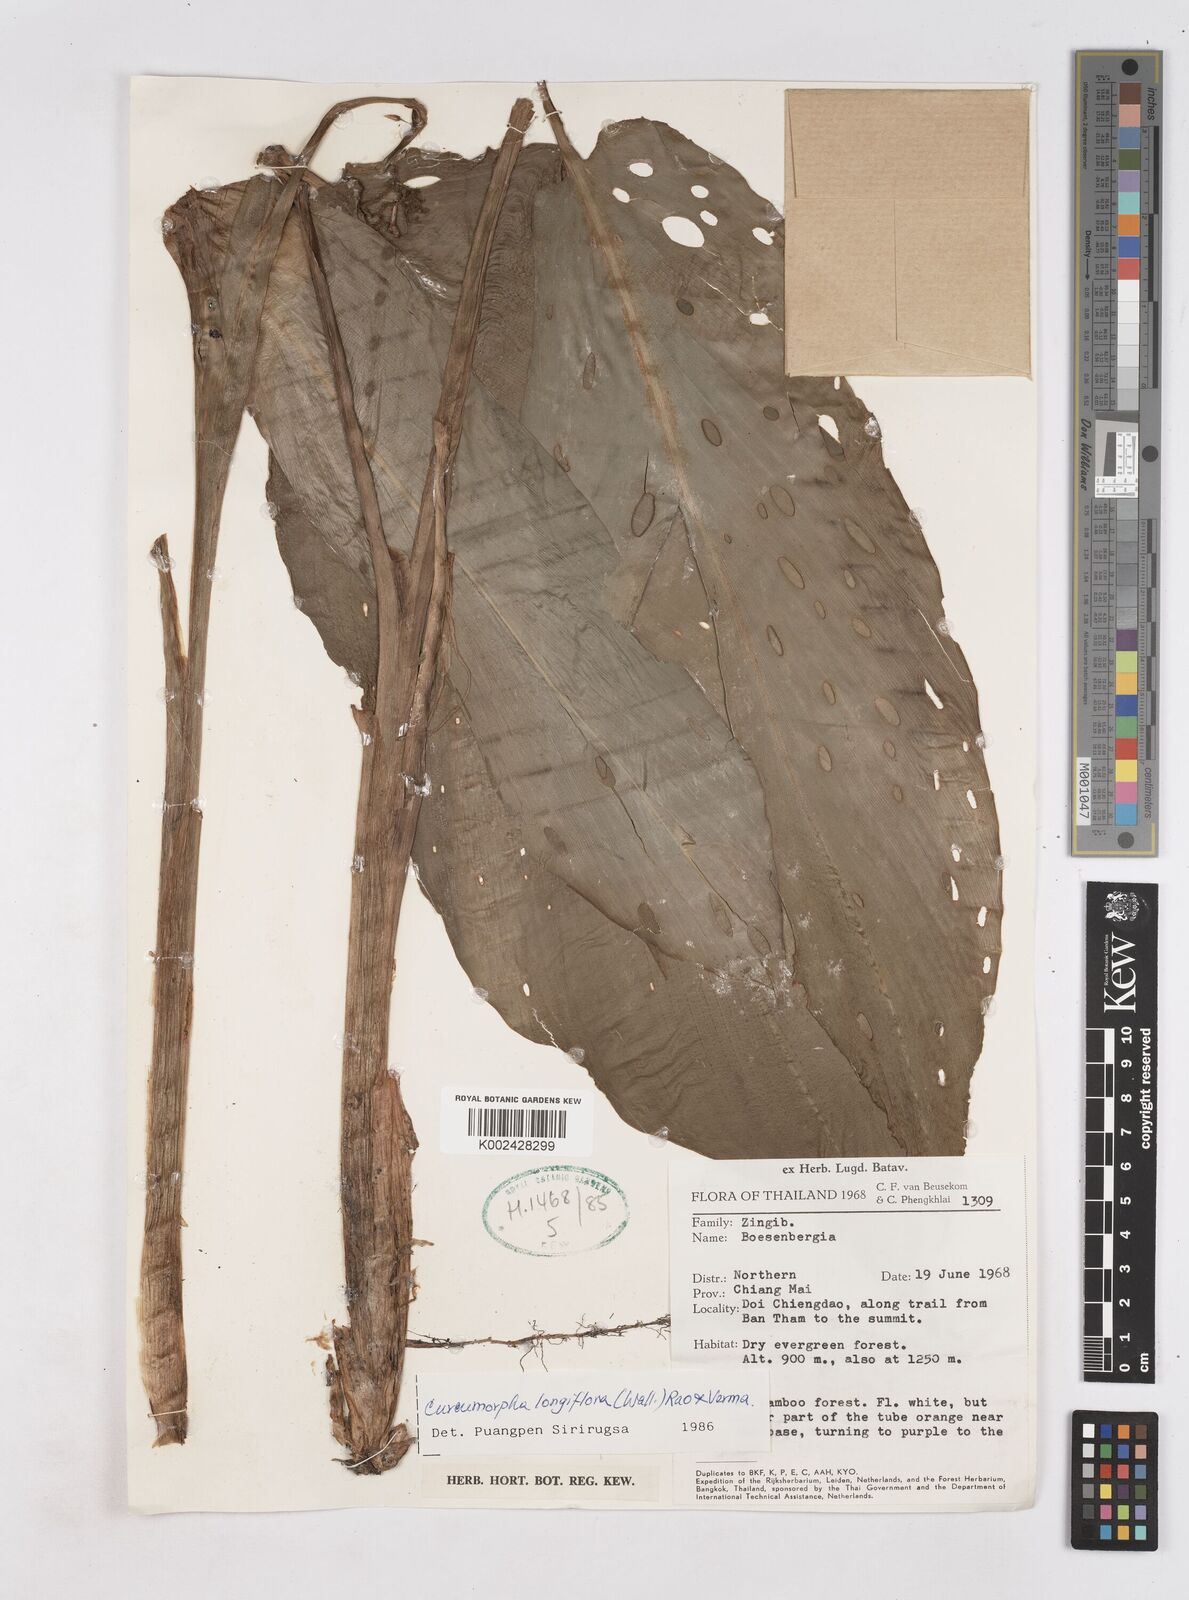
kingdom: Plantae
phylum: Tracheophyta
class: Liliopsida
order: Zingiberales
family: Zingiberaceae
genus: Boesenbergia
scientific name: Boesenbergia longiflora
